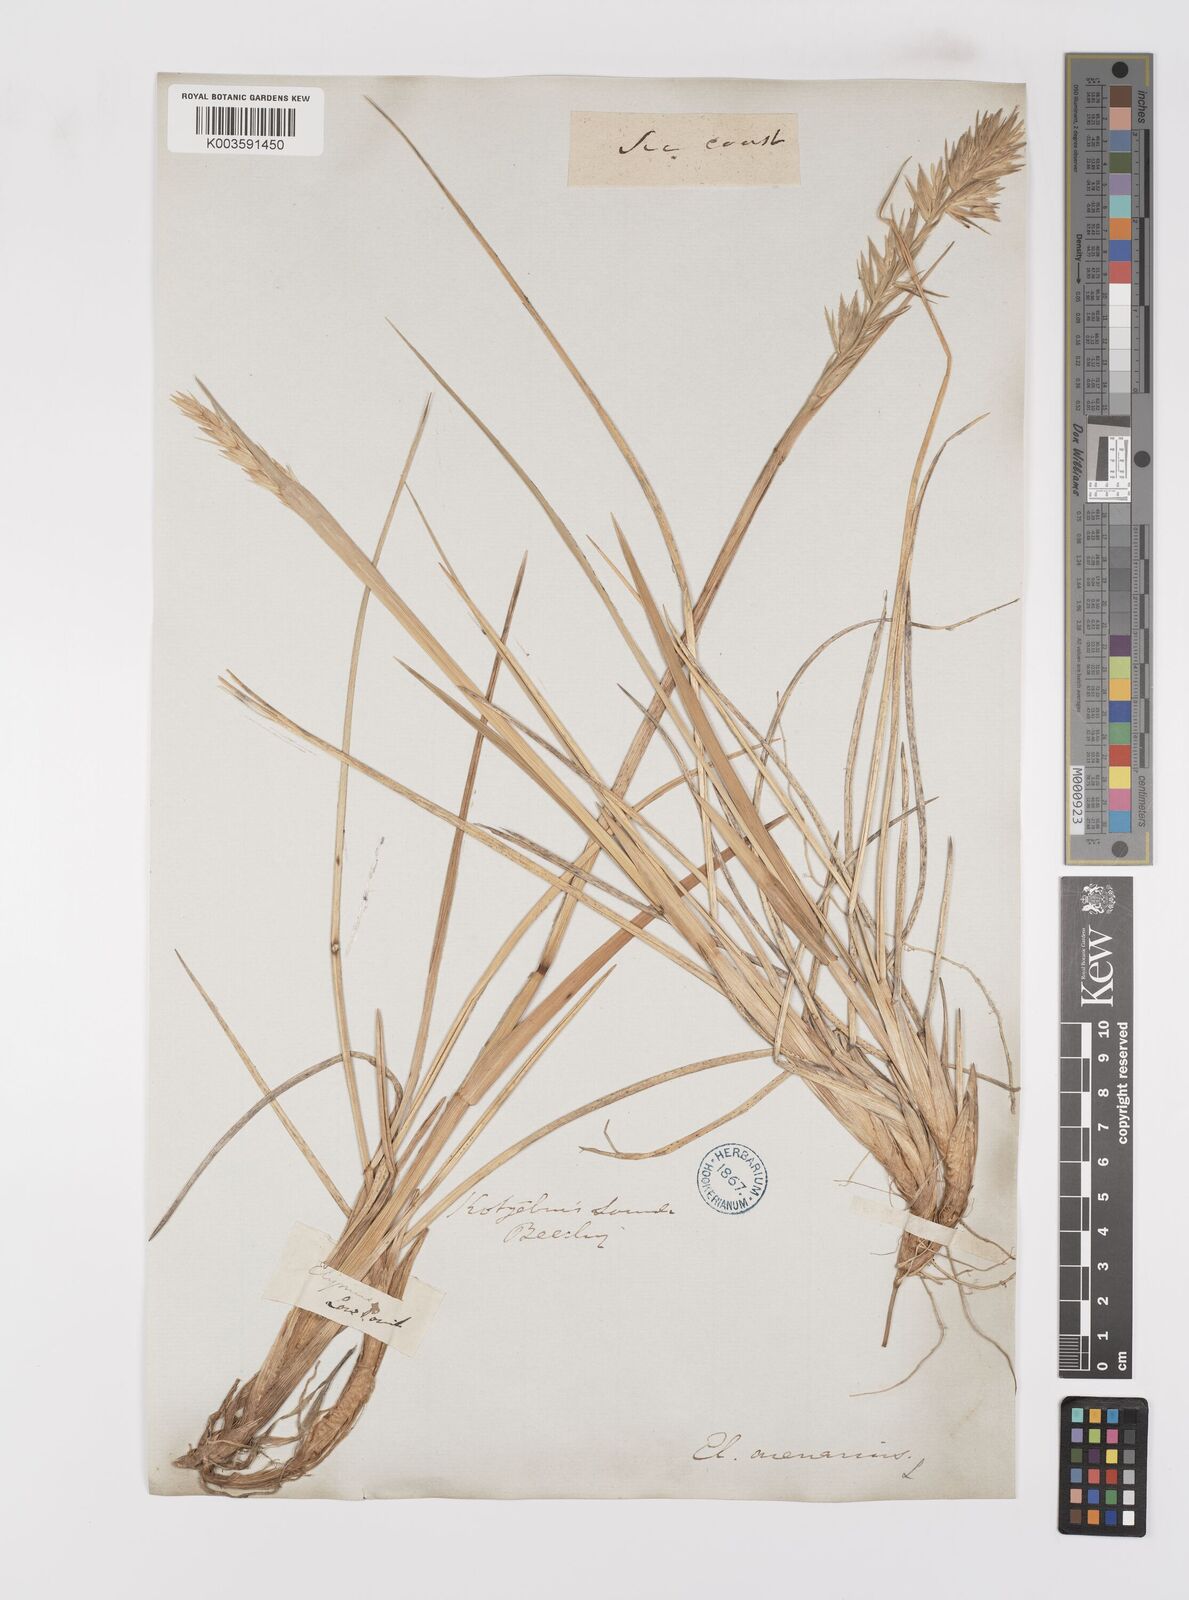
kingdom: Plantae
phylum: Tracheophyta
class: Liliopsida
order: Poales
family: Poaceae
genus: Leymus
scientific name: Leymus mollis
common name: American dune grass
